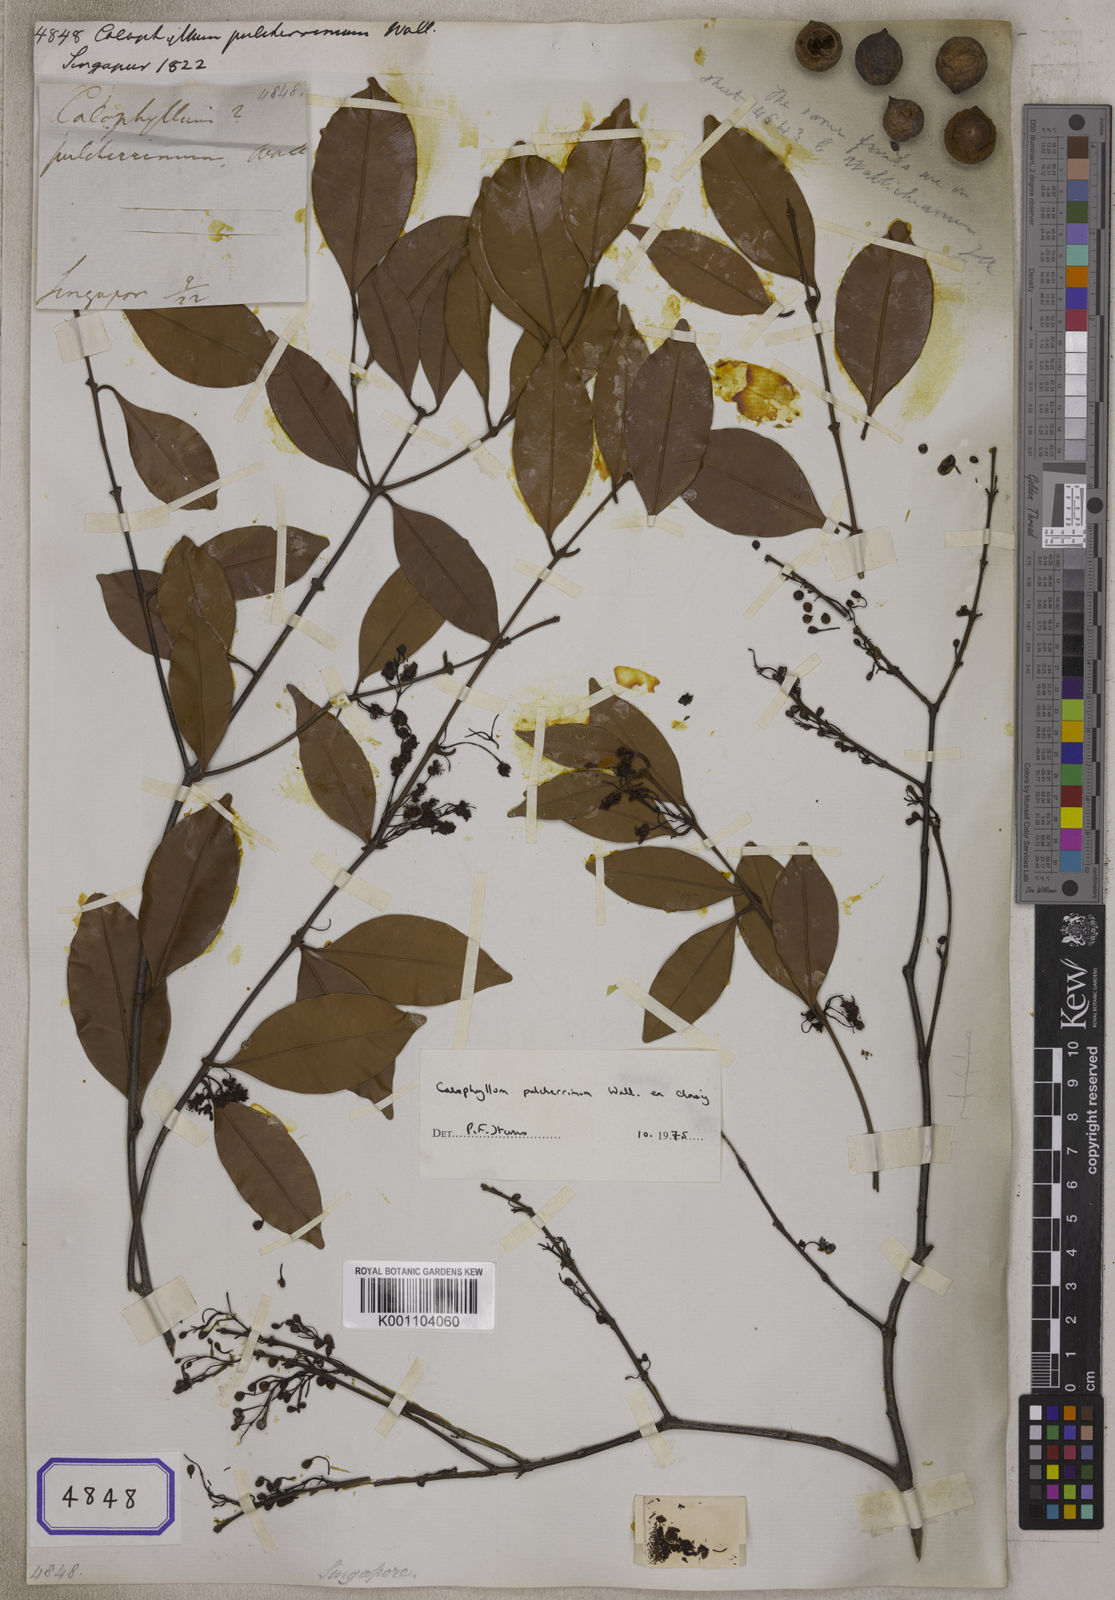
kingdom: Plantae
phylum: Tracheophyta
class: Magnoliopsida
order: Malpighiales
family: Calophyllaceae
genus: Calophyllum
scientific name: Calophyllum
